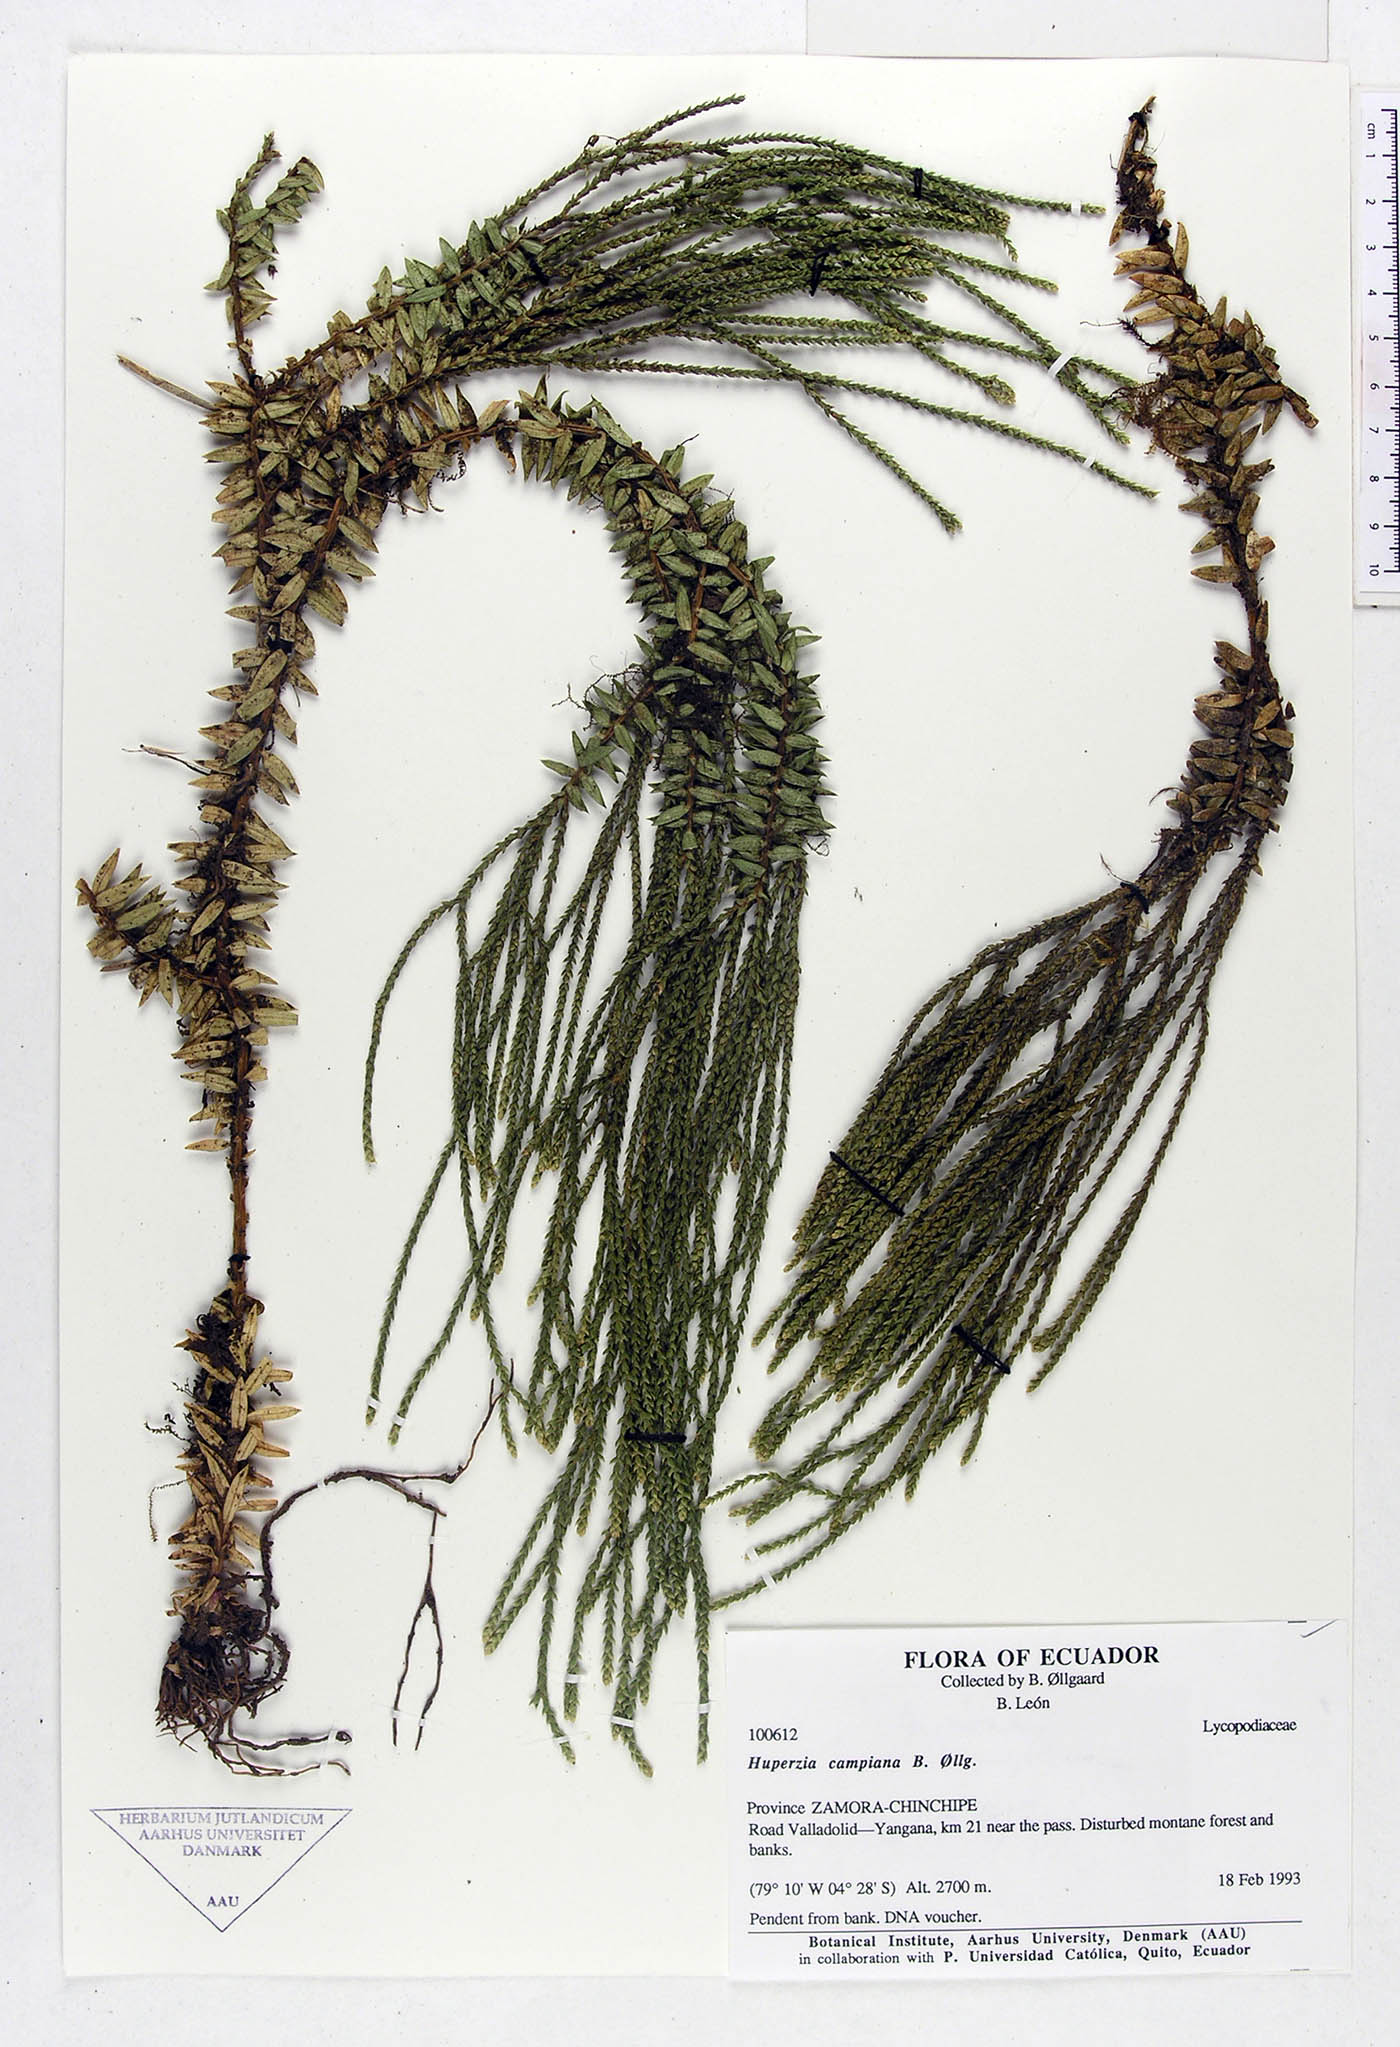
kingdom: Plantae
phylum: Tracheophyta
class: Lycopodiopsida
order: Lycopodiales
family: Lycopodiaceae
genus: Phlegmariurus
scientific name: Phlegmariurus campianus
